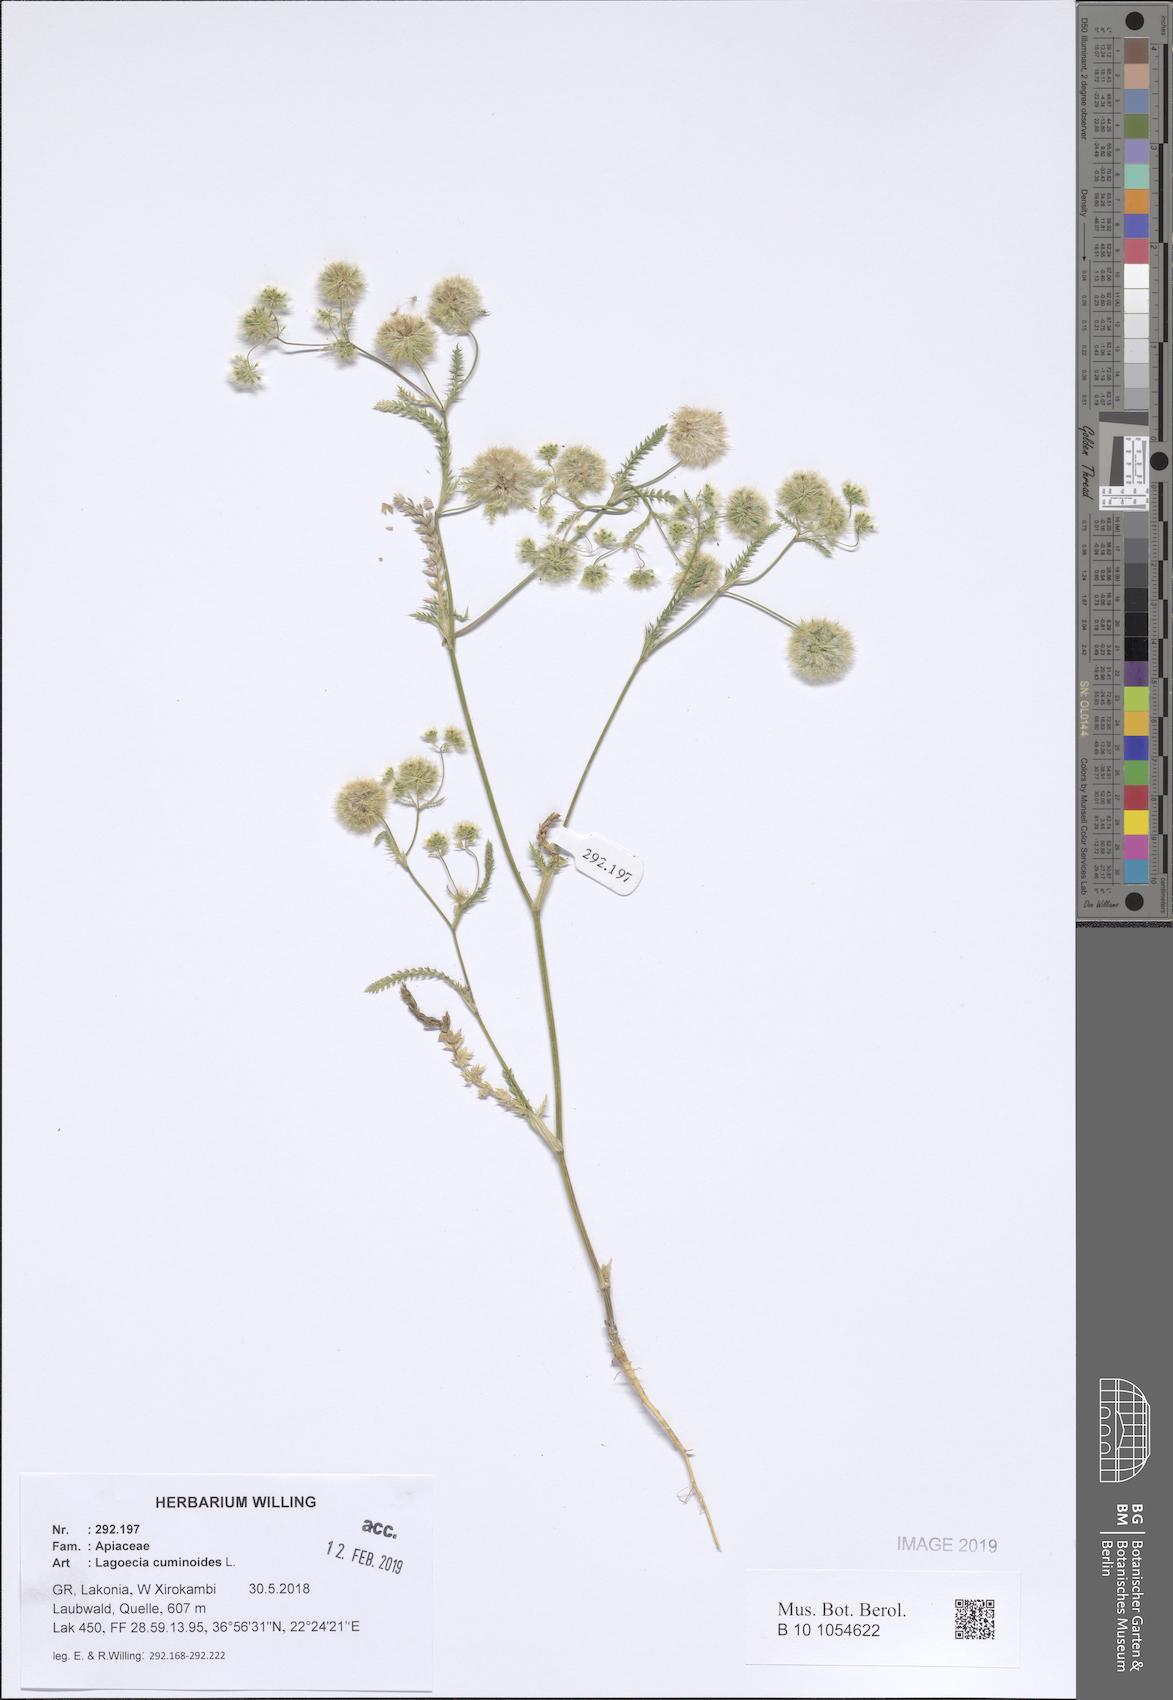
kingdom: Plantae
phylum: Tracheophyta
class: Magnoliopsida
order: Apiales
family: Apiaceae
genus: Lagoecia
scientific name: Lagoecia cuminoides
